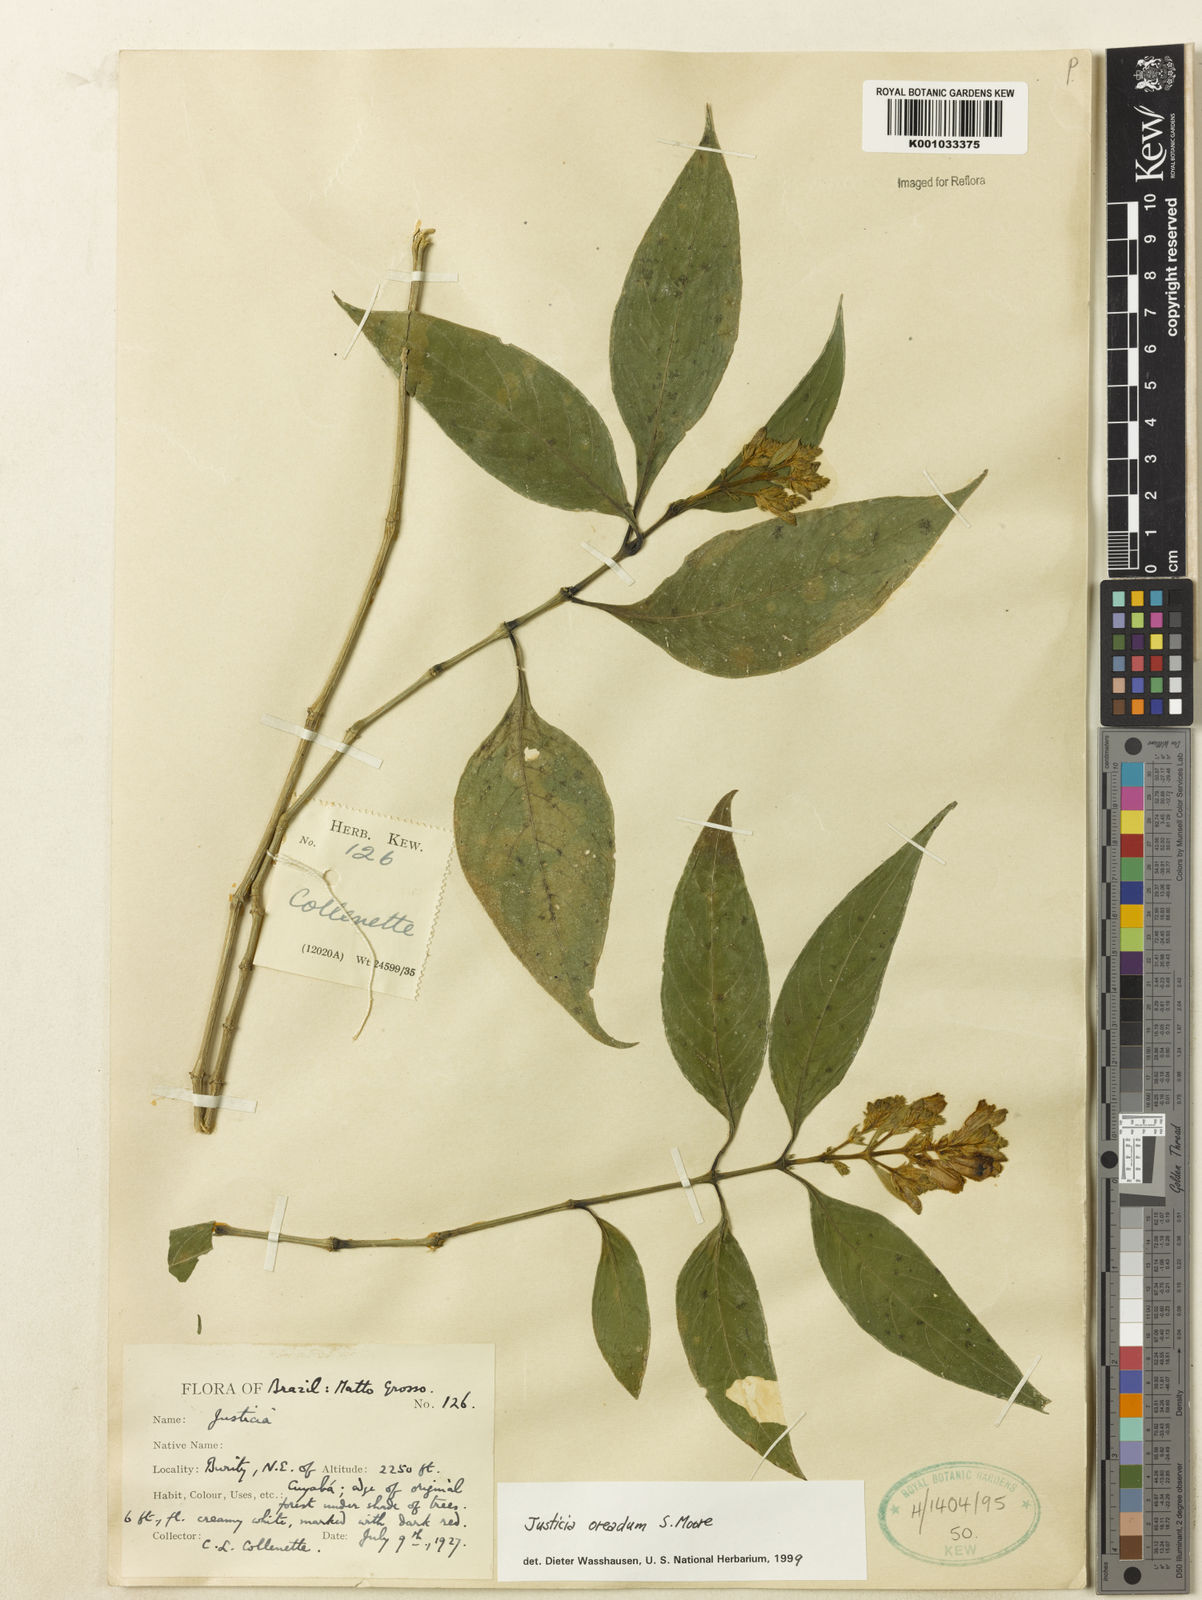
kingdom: Plantae
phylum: Tracheophyta
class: Magnoliopsida
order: Lamiales
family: Acanthaceae
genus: Justicia
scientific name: Justicia oreadum
